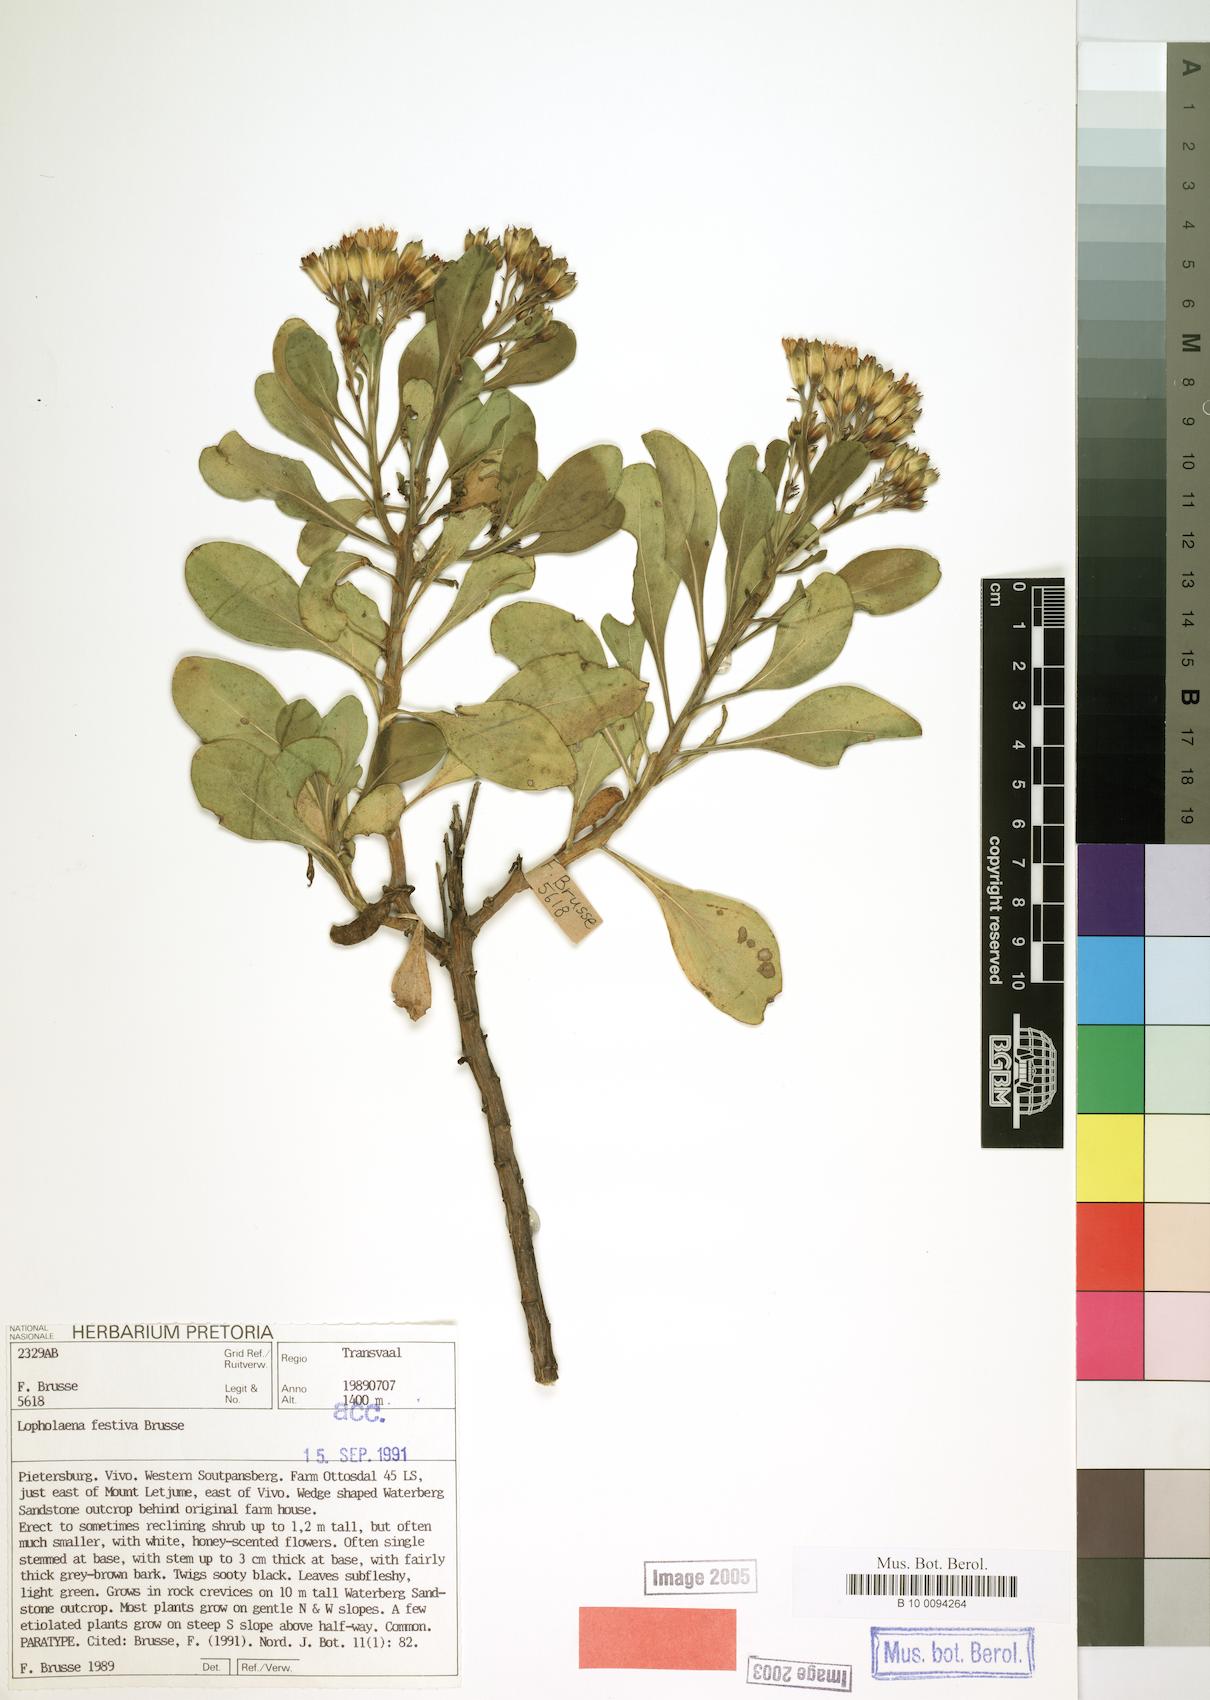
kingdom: Plantae
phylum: Tracheophyta
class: Magnoliopsida
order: Asterales
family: Asteraceae
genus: Lopholaena
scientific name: Lopholaena festiva
